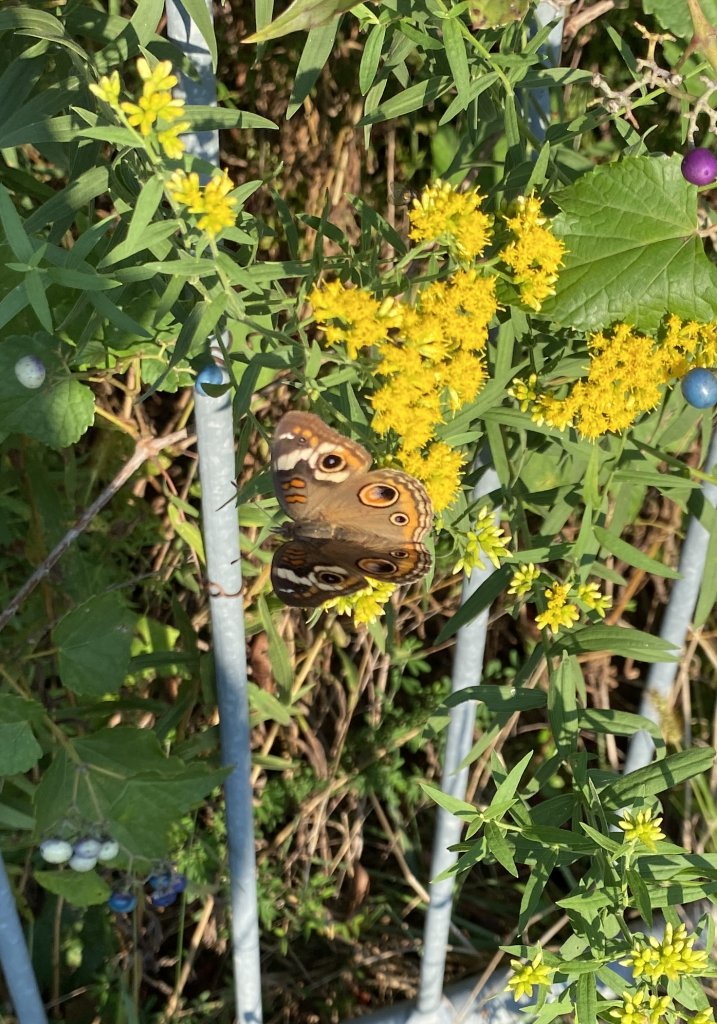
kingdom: Animalia
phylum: Arthropoda
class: Insecta
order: Lepidoptera
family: Nymphalidae
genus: Junonia
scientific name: Junonia coenia
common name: Common Buckeye
